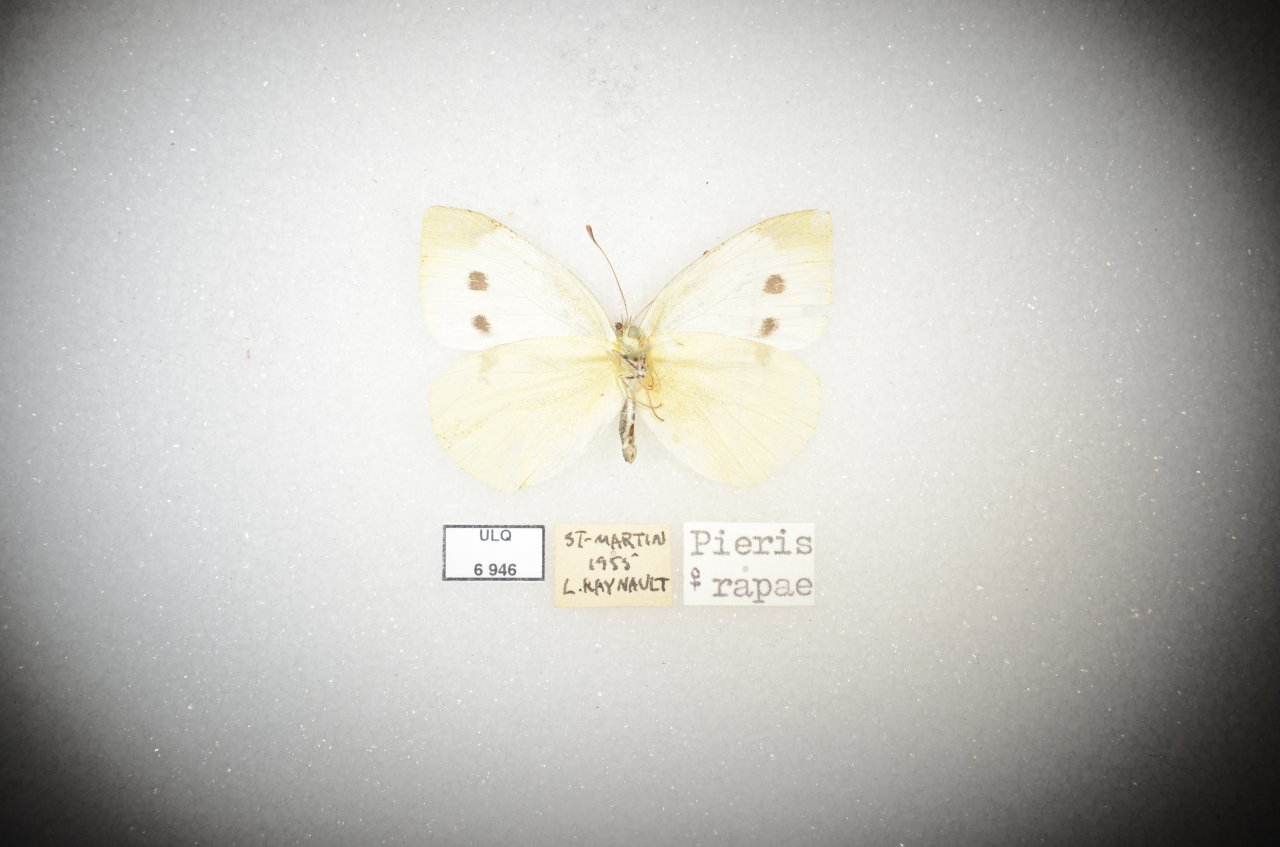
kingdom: Animalia
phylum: Arthropoda
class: Insecta
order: Lepidoptera
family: Pieridae
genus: Pieris
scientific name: Pieris rapae
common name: Cabbage White
